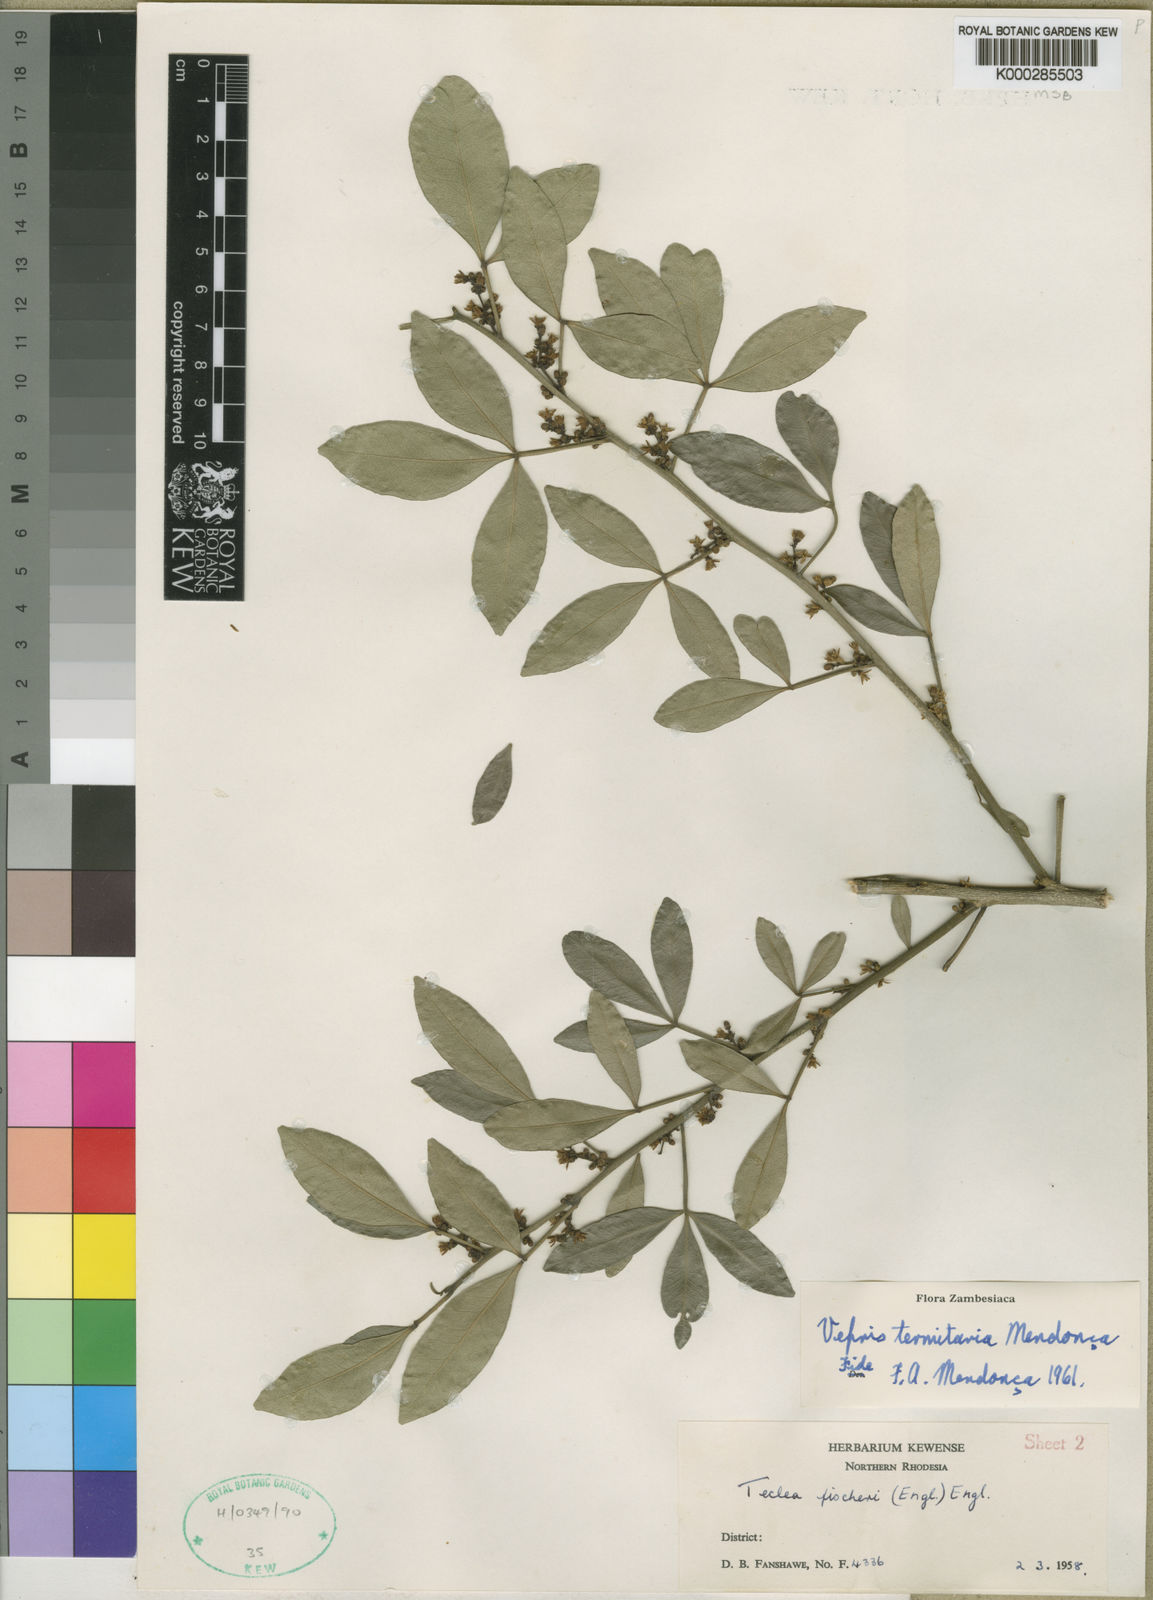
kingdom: Plantae
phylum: Tracheophyta
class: Magnoliopsida
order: Sapindales
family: Rutaceae
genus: Vepris
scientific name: Vepris
